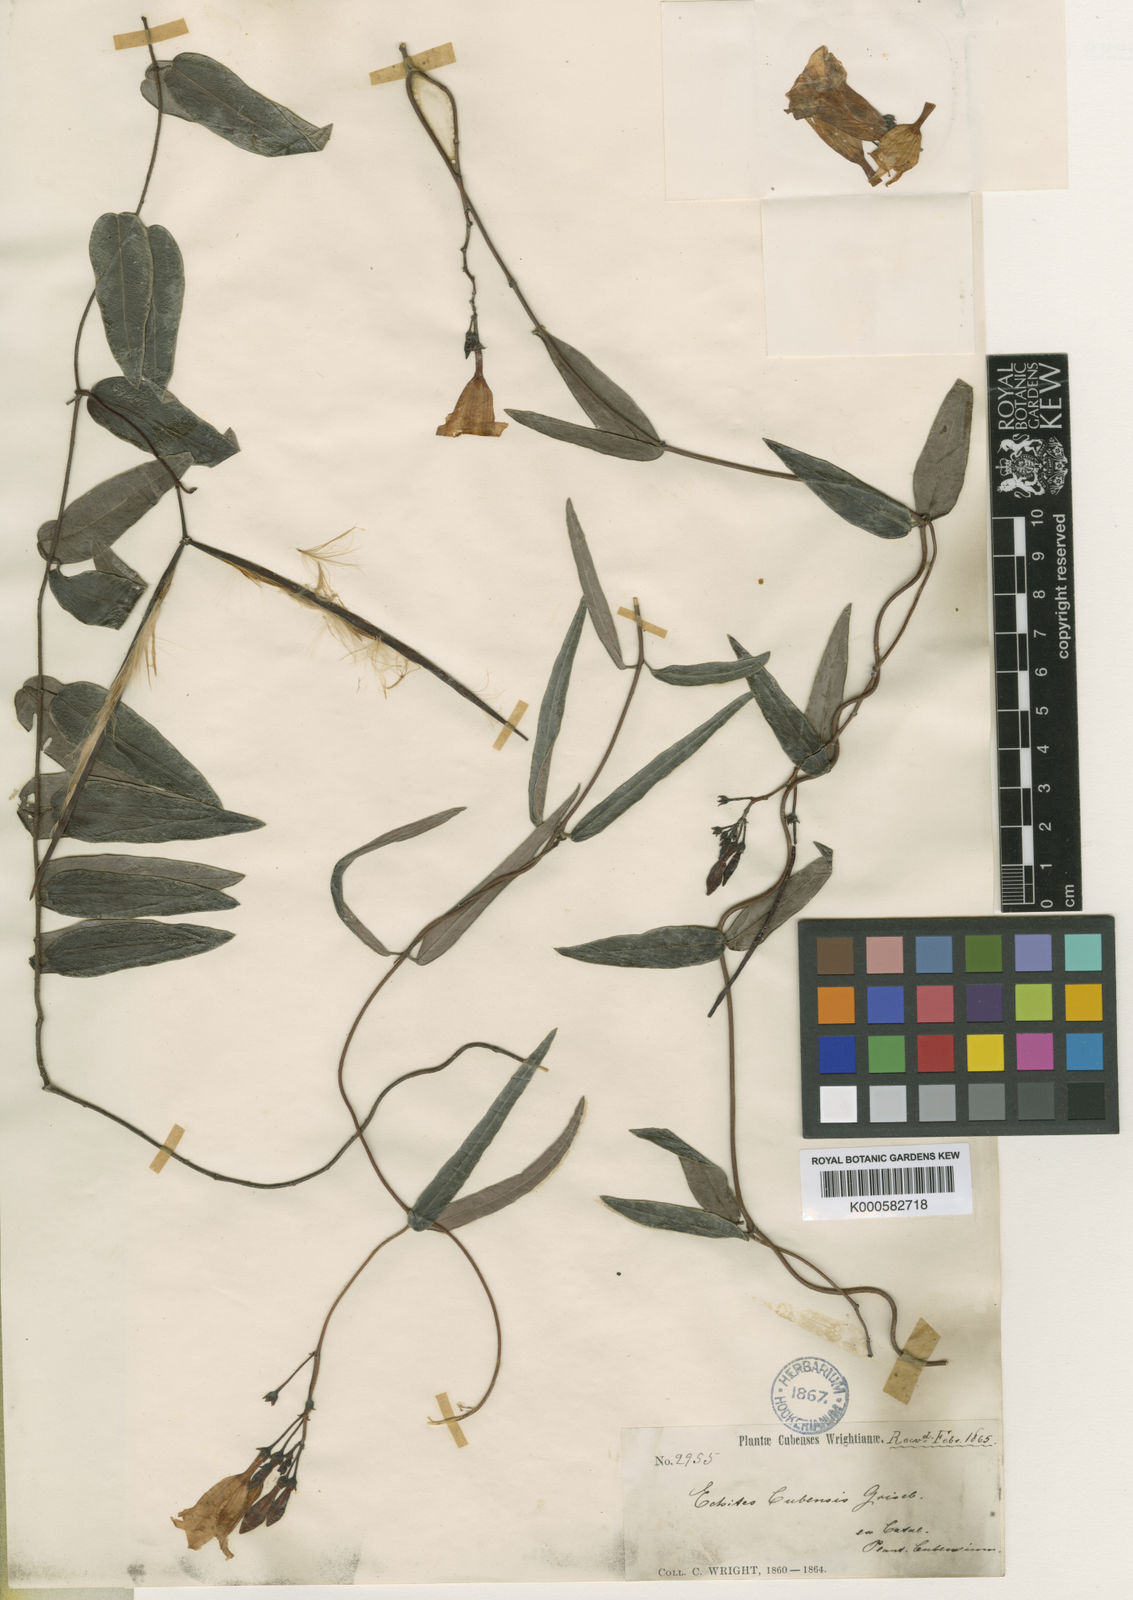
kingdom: Plantae
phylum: Tracheophyta
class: Magnoliopsida
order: Gentianales
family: Apocynaceae
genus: Angadenia
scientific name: Angadenia berteroi
